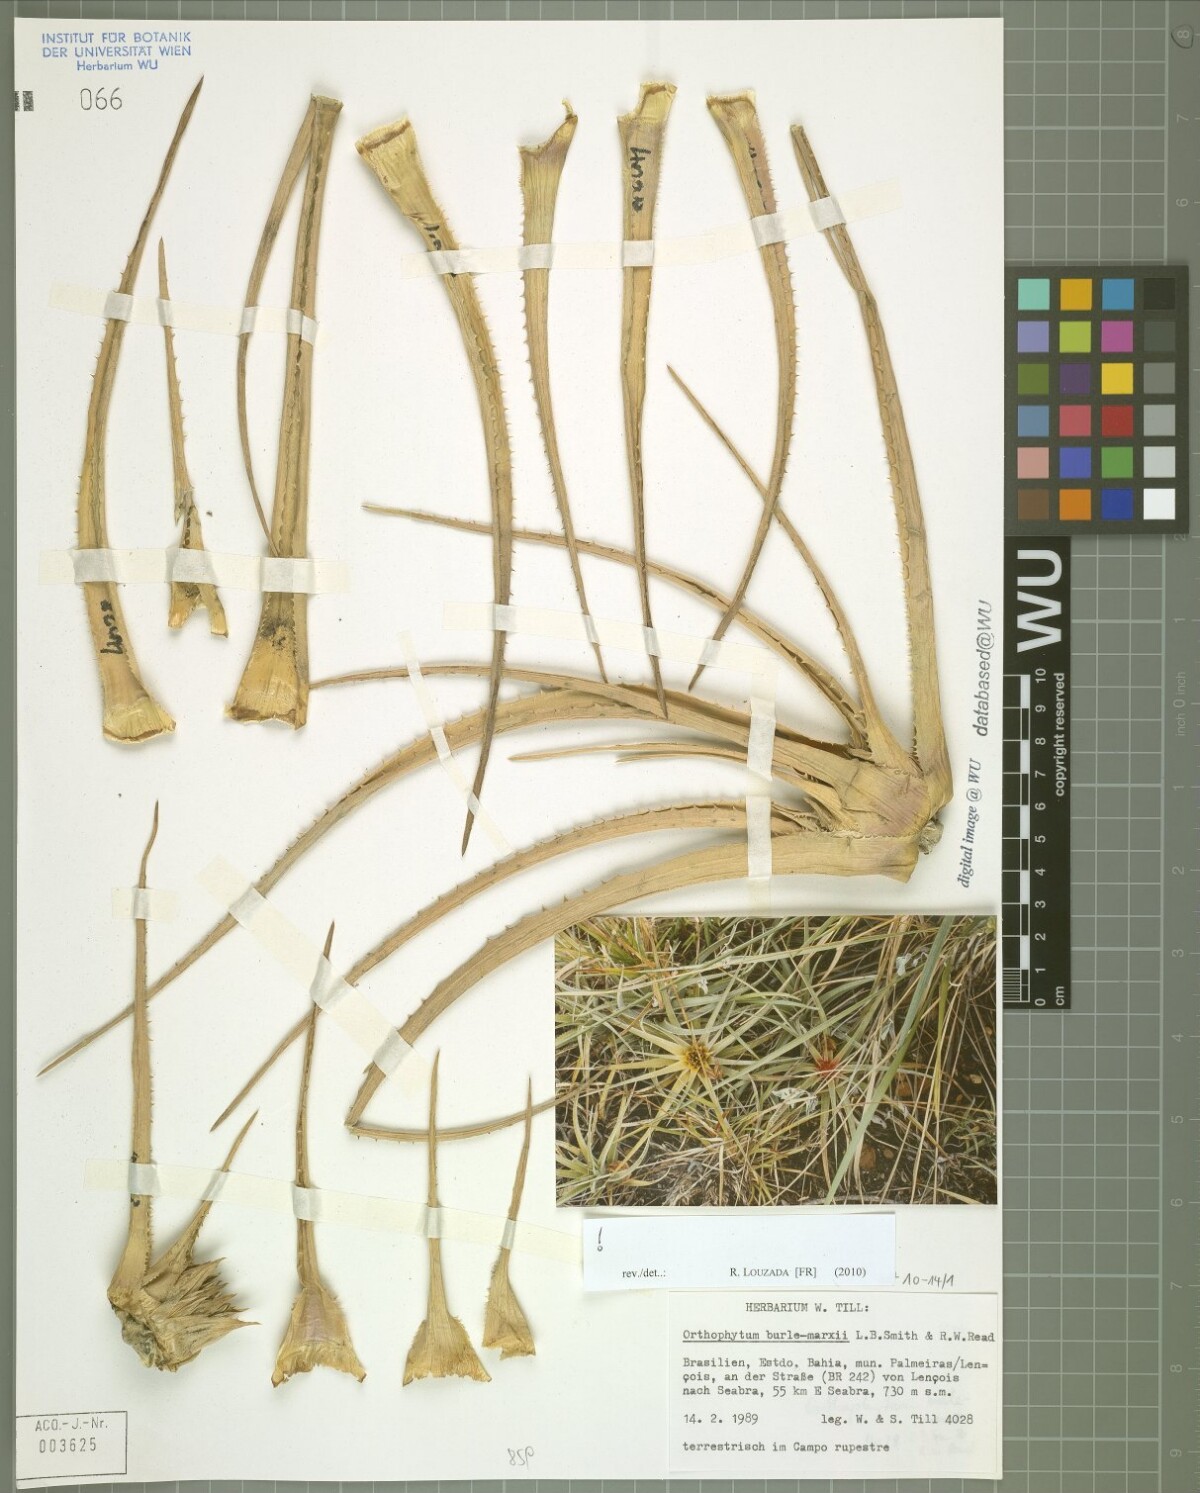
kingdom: Plantae
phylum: Tracheophyta
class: Liliopsida
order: Poales
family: Bromeliaceae
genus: Sincoraea
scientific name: Sincoraea burle-marxii
